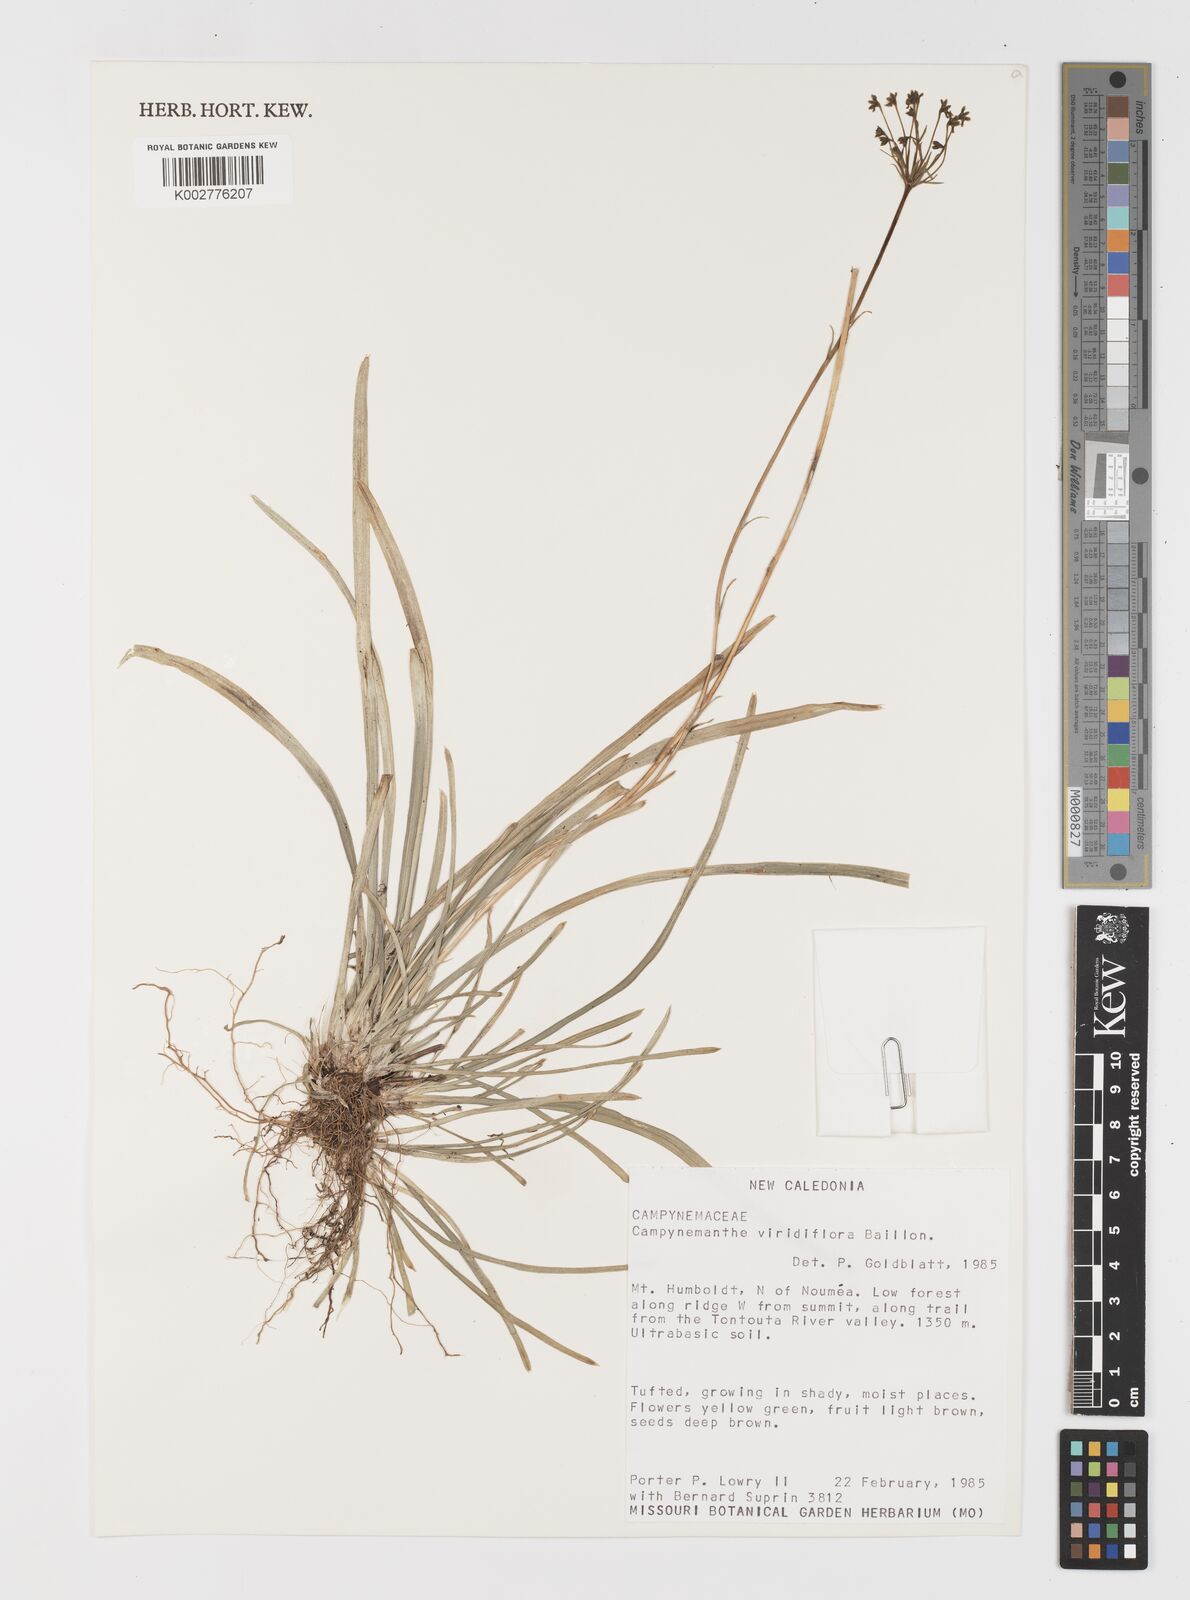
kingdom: Plantae
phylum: Tracheophyta
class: Liliopsida
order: Liliales
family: Campynemataceae
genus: Campynemanthe
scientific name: Campynemanthe viridiflora
